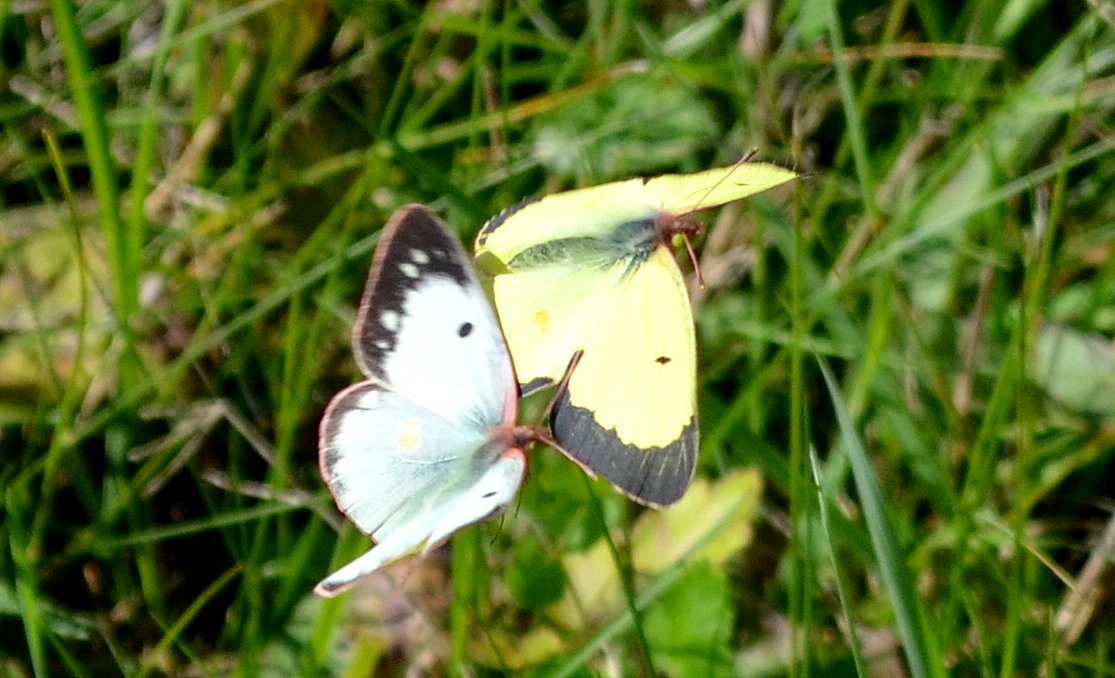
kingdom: Animalia
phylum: Arthropoda
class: Insecta
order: Lepidoptera
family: Pieridae
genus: Colias
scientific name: Colias philodice
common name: Clouded Sulphur
